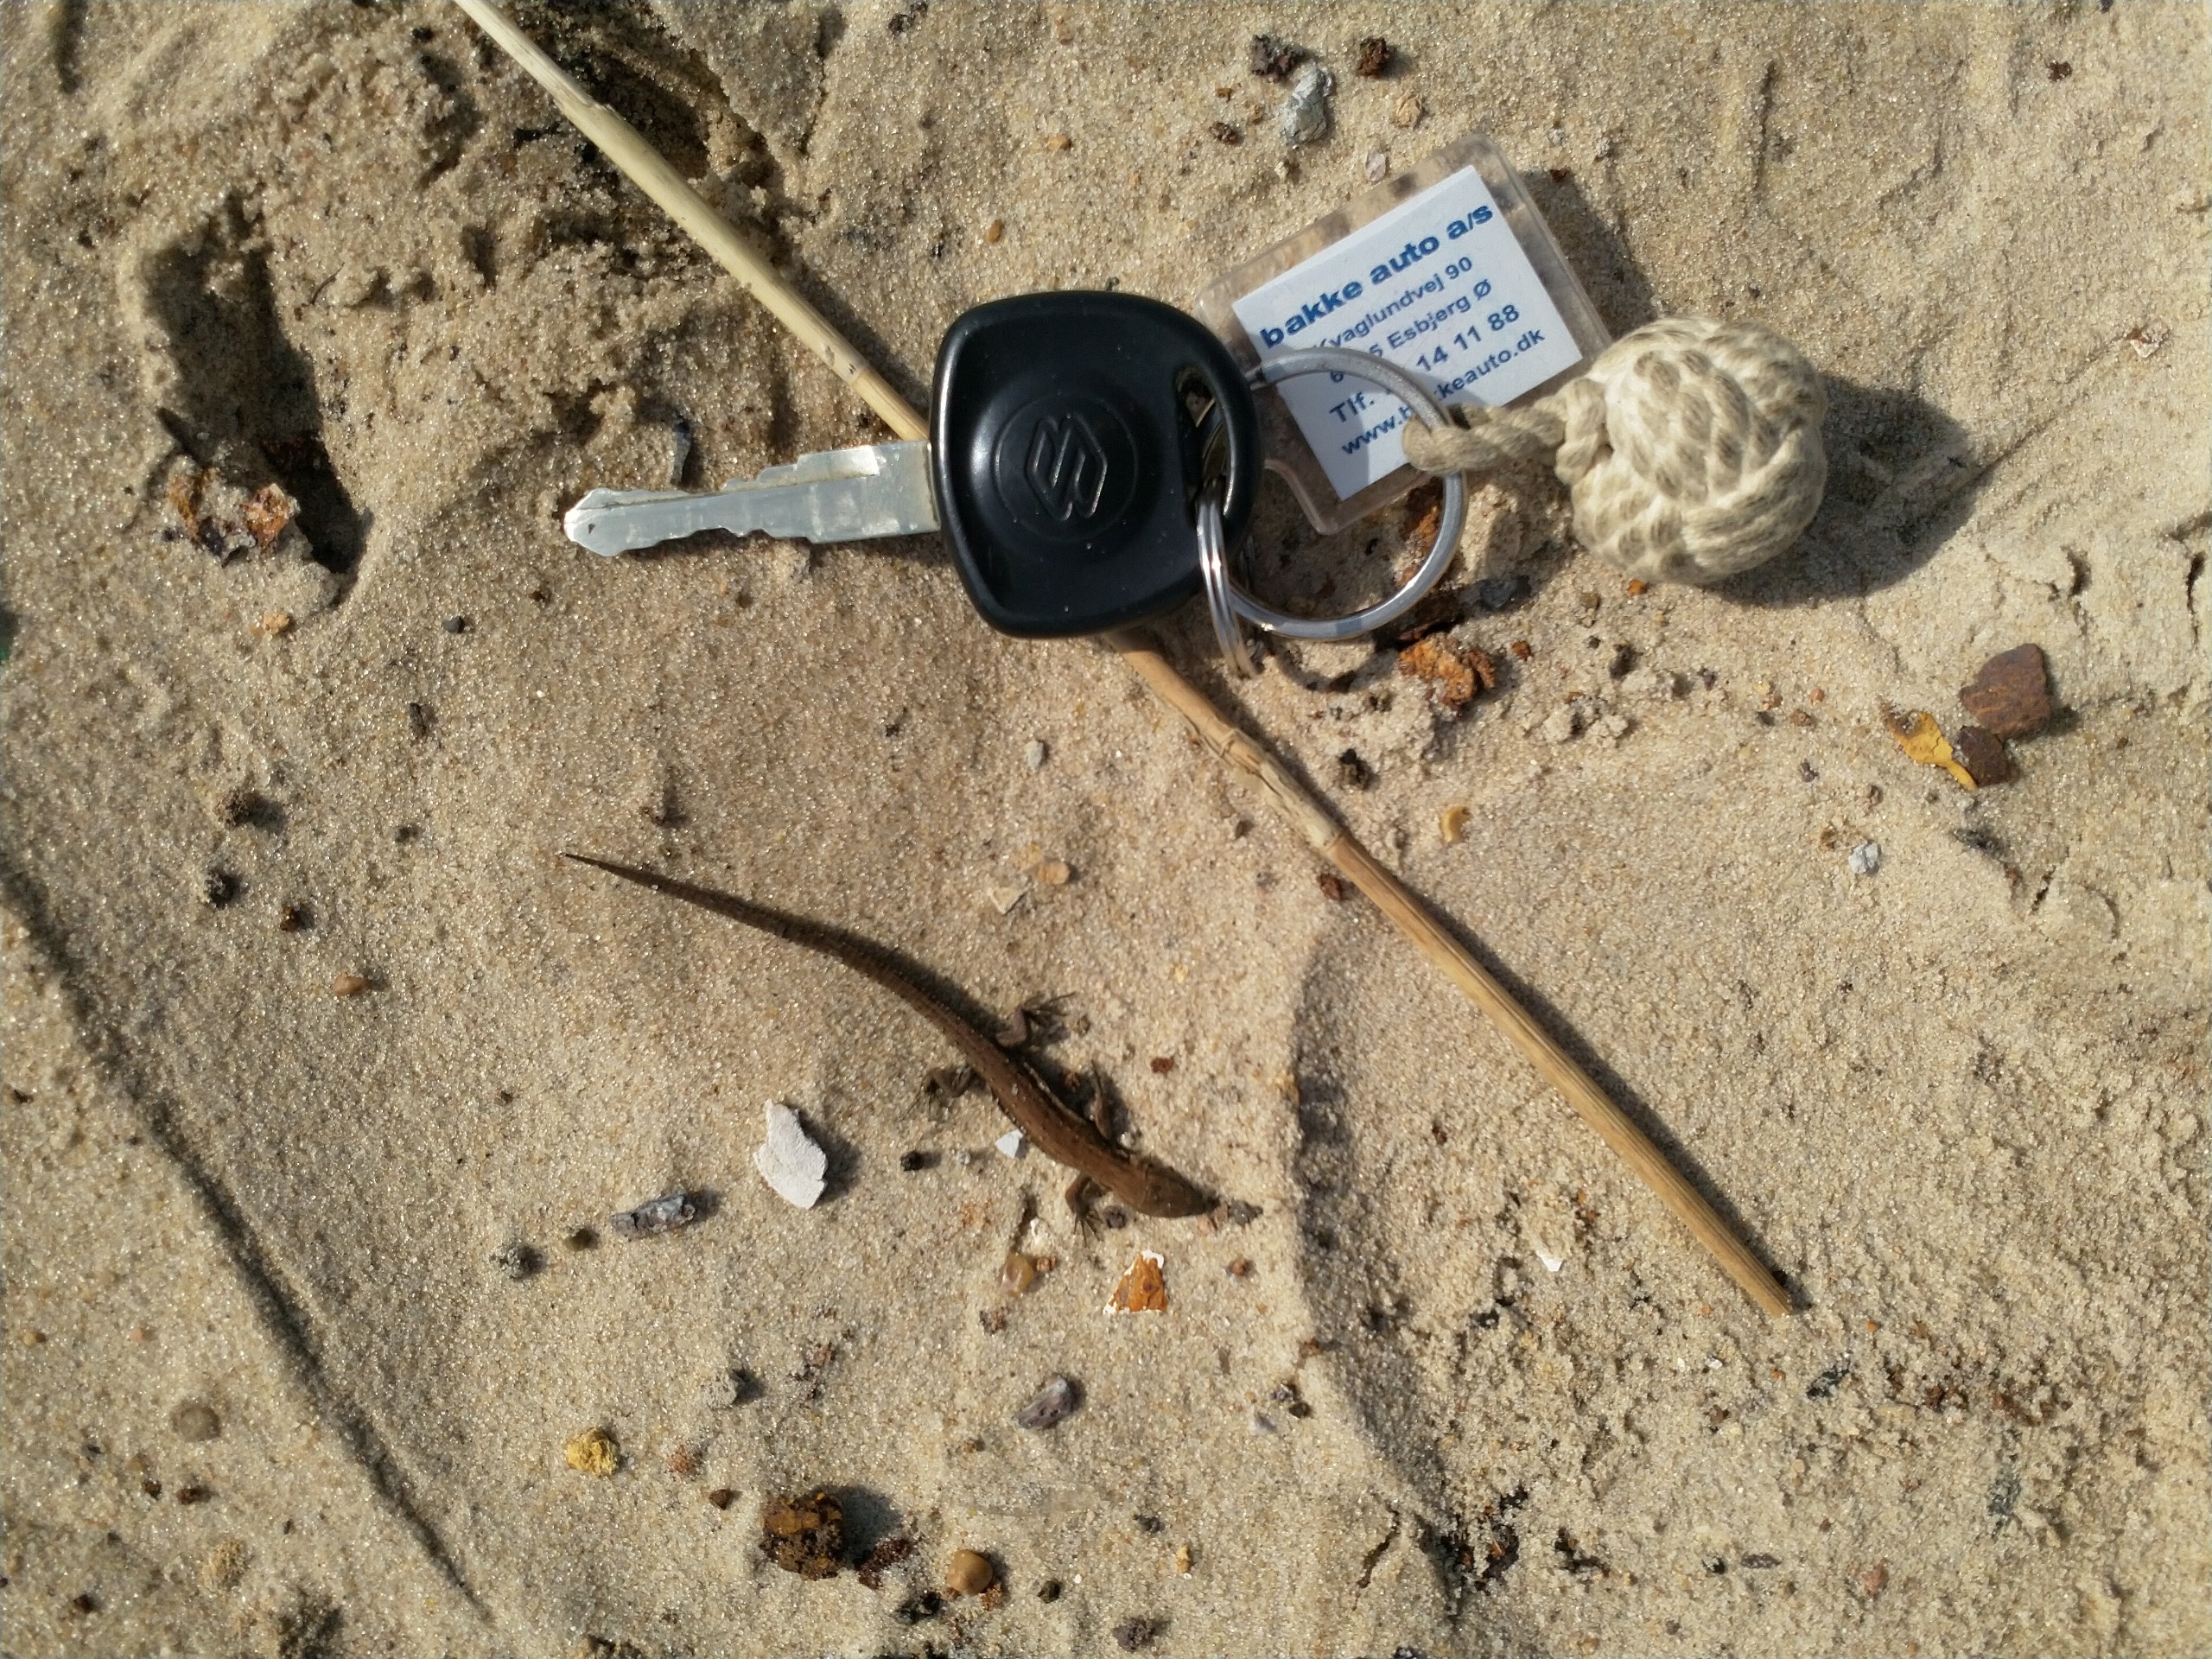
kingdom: Animalia
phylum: Chordata
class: Squamata
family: Lacertidae
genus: Zootoca
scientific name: Zootoca vivipara
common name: Skovfirben
